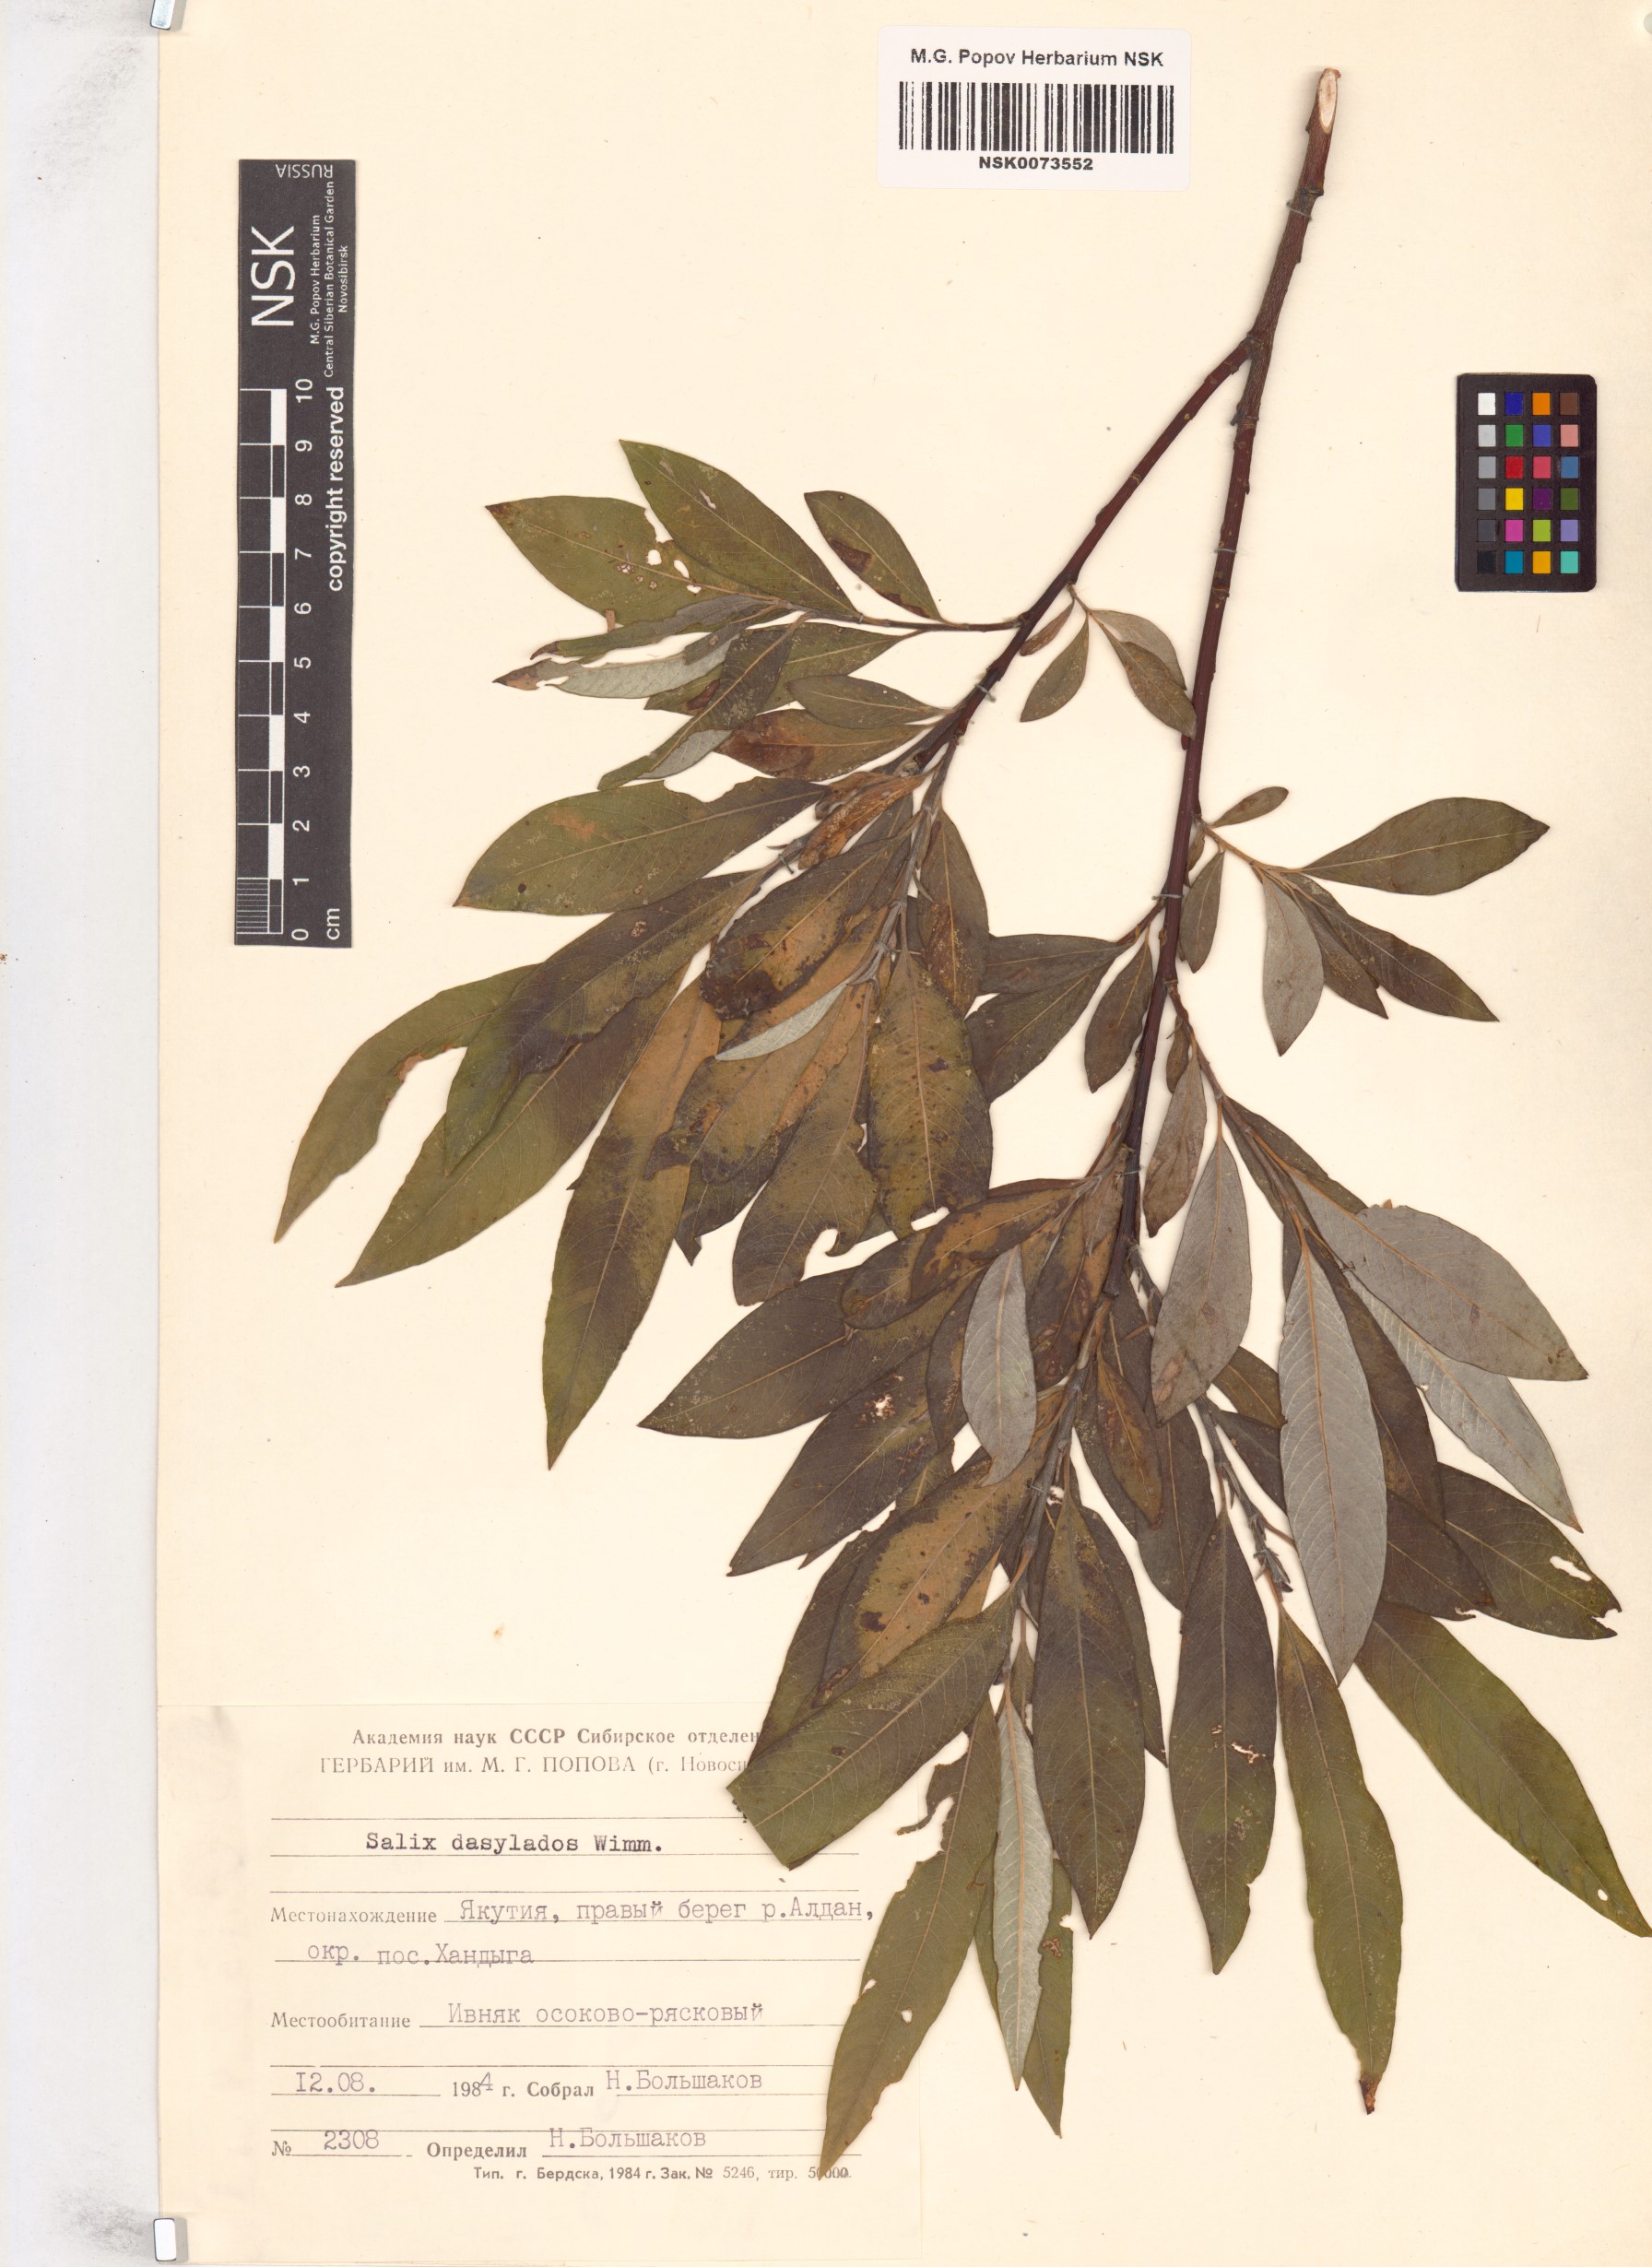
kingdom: Plantae
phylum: Tracheophyta
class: Magnoliopsida
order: Malpighiales
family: Salicaceae
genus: Salix
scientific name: Salix gmelinii
